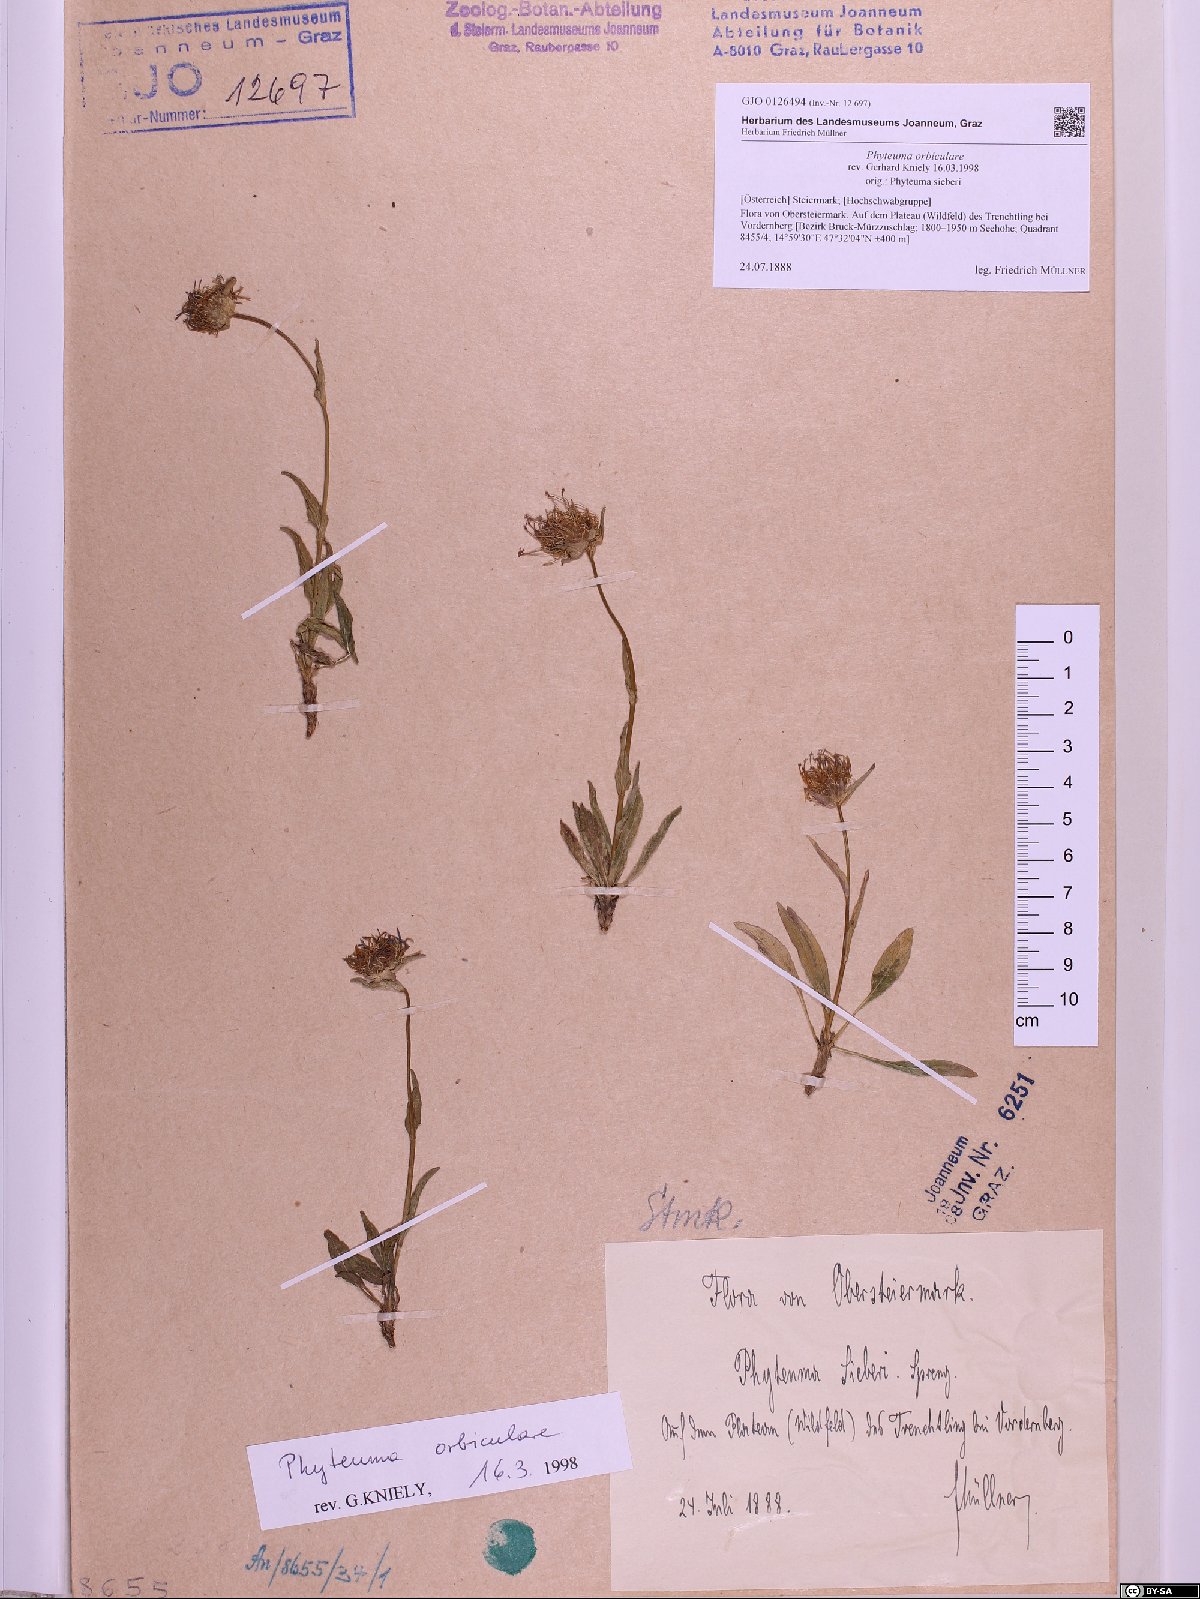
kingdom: Plantae
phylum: Tracheophyta
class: Magnoliopsida
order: Asterales
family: Campanulaceae
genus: Phyteuma
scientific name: Phyteuma orbiculare
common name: Round-headed rampion
